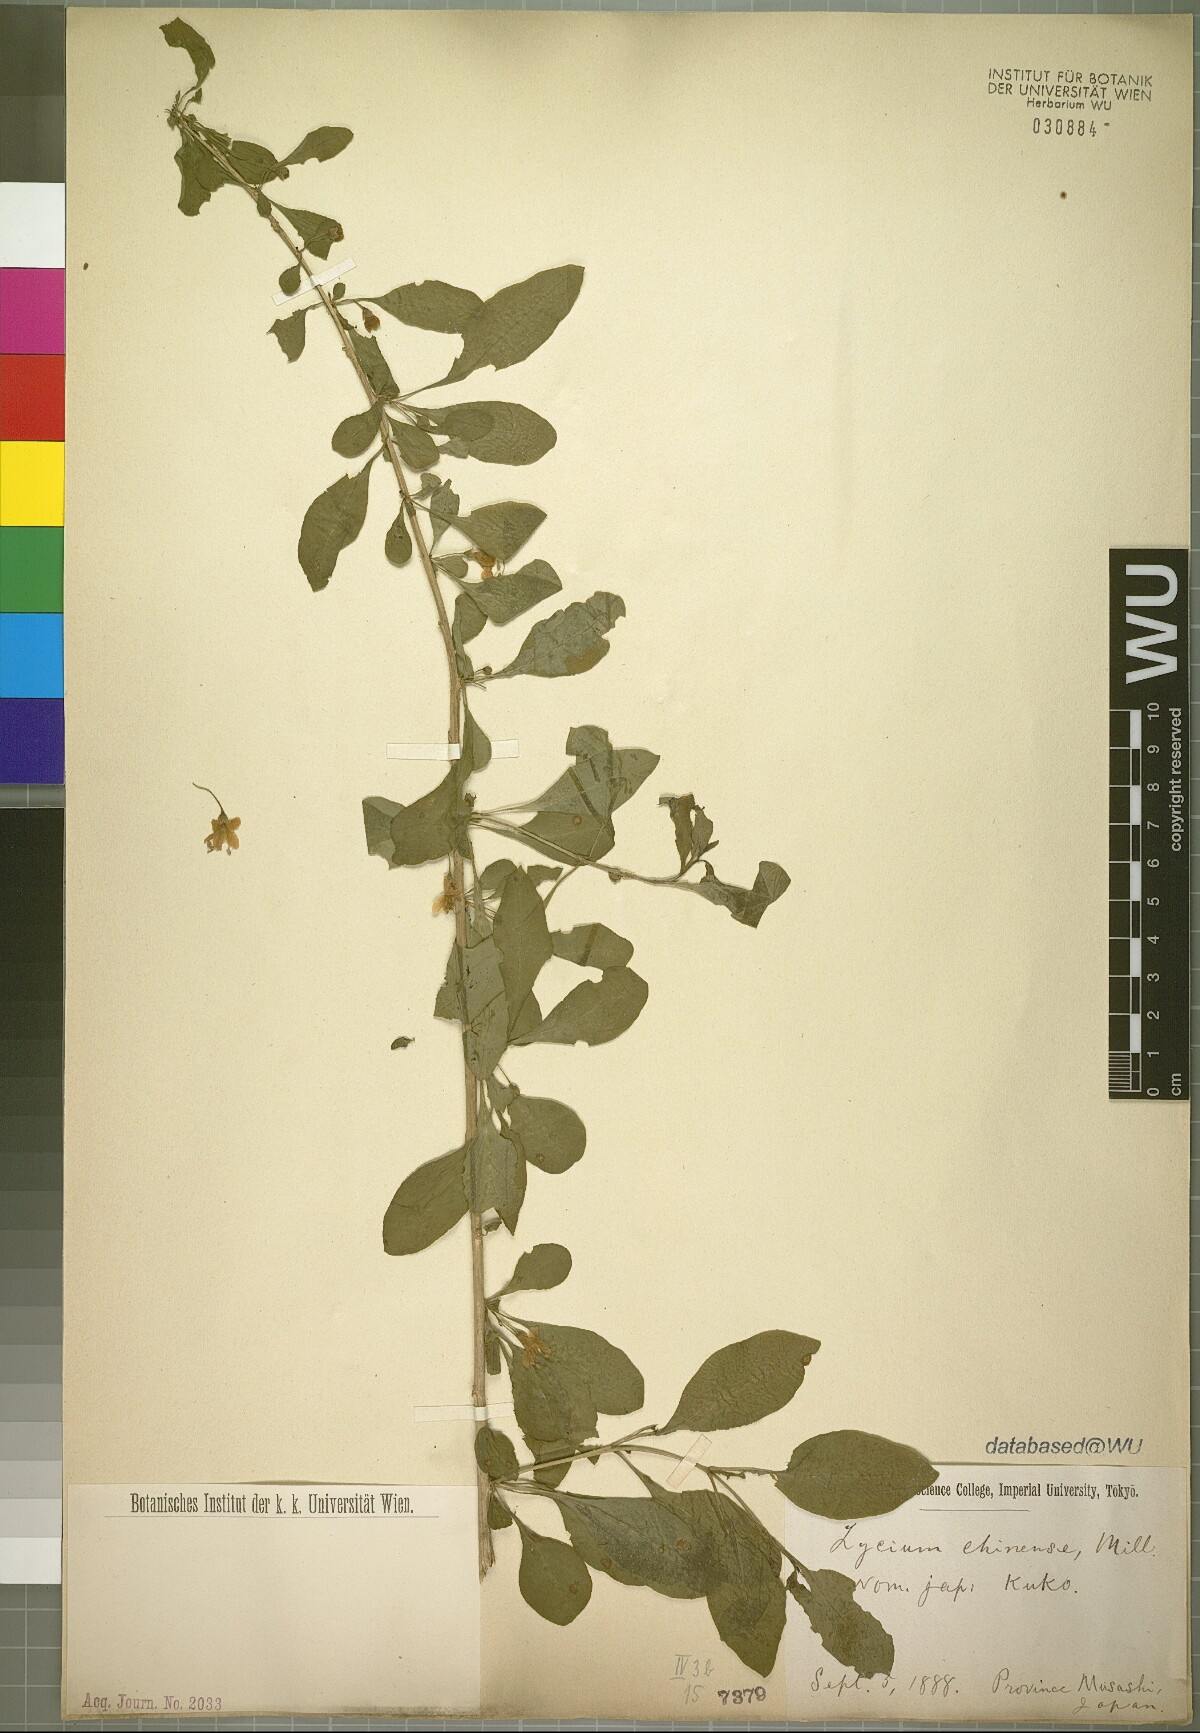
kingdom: Plantae
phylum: Tracheophyta
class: Magnoliopsida
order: Solanales
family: Solanaceae
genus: Lycium
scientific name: Lycium chinense
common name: Chinese teaplant
